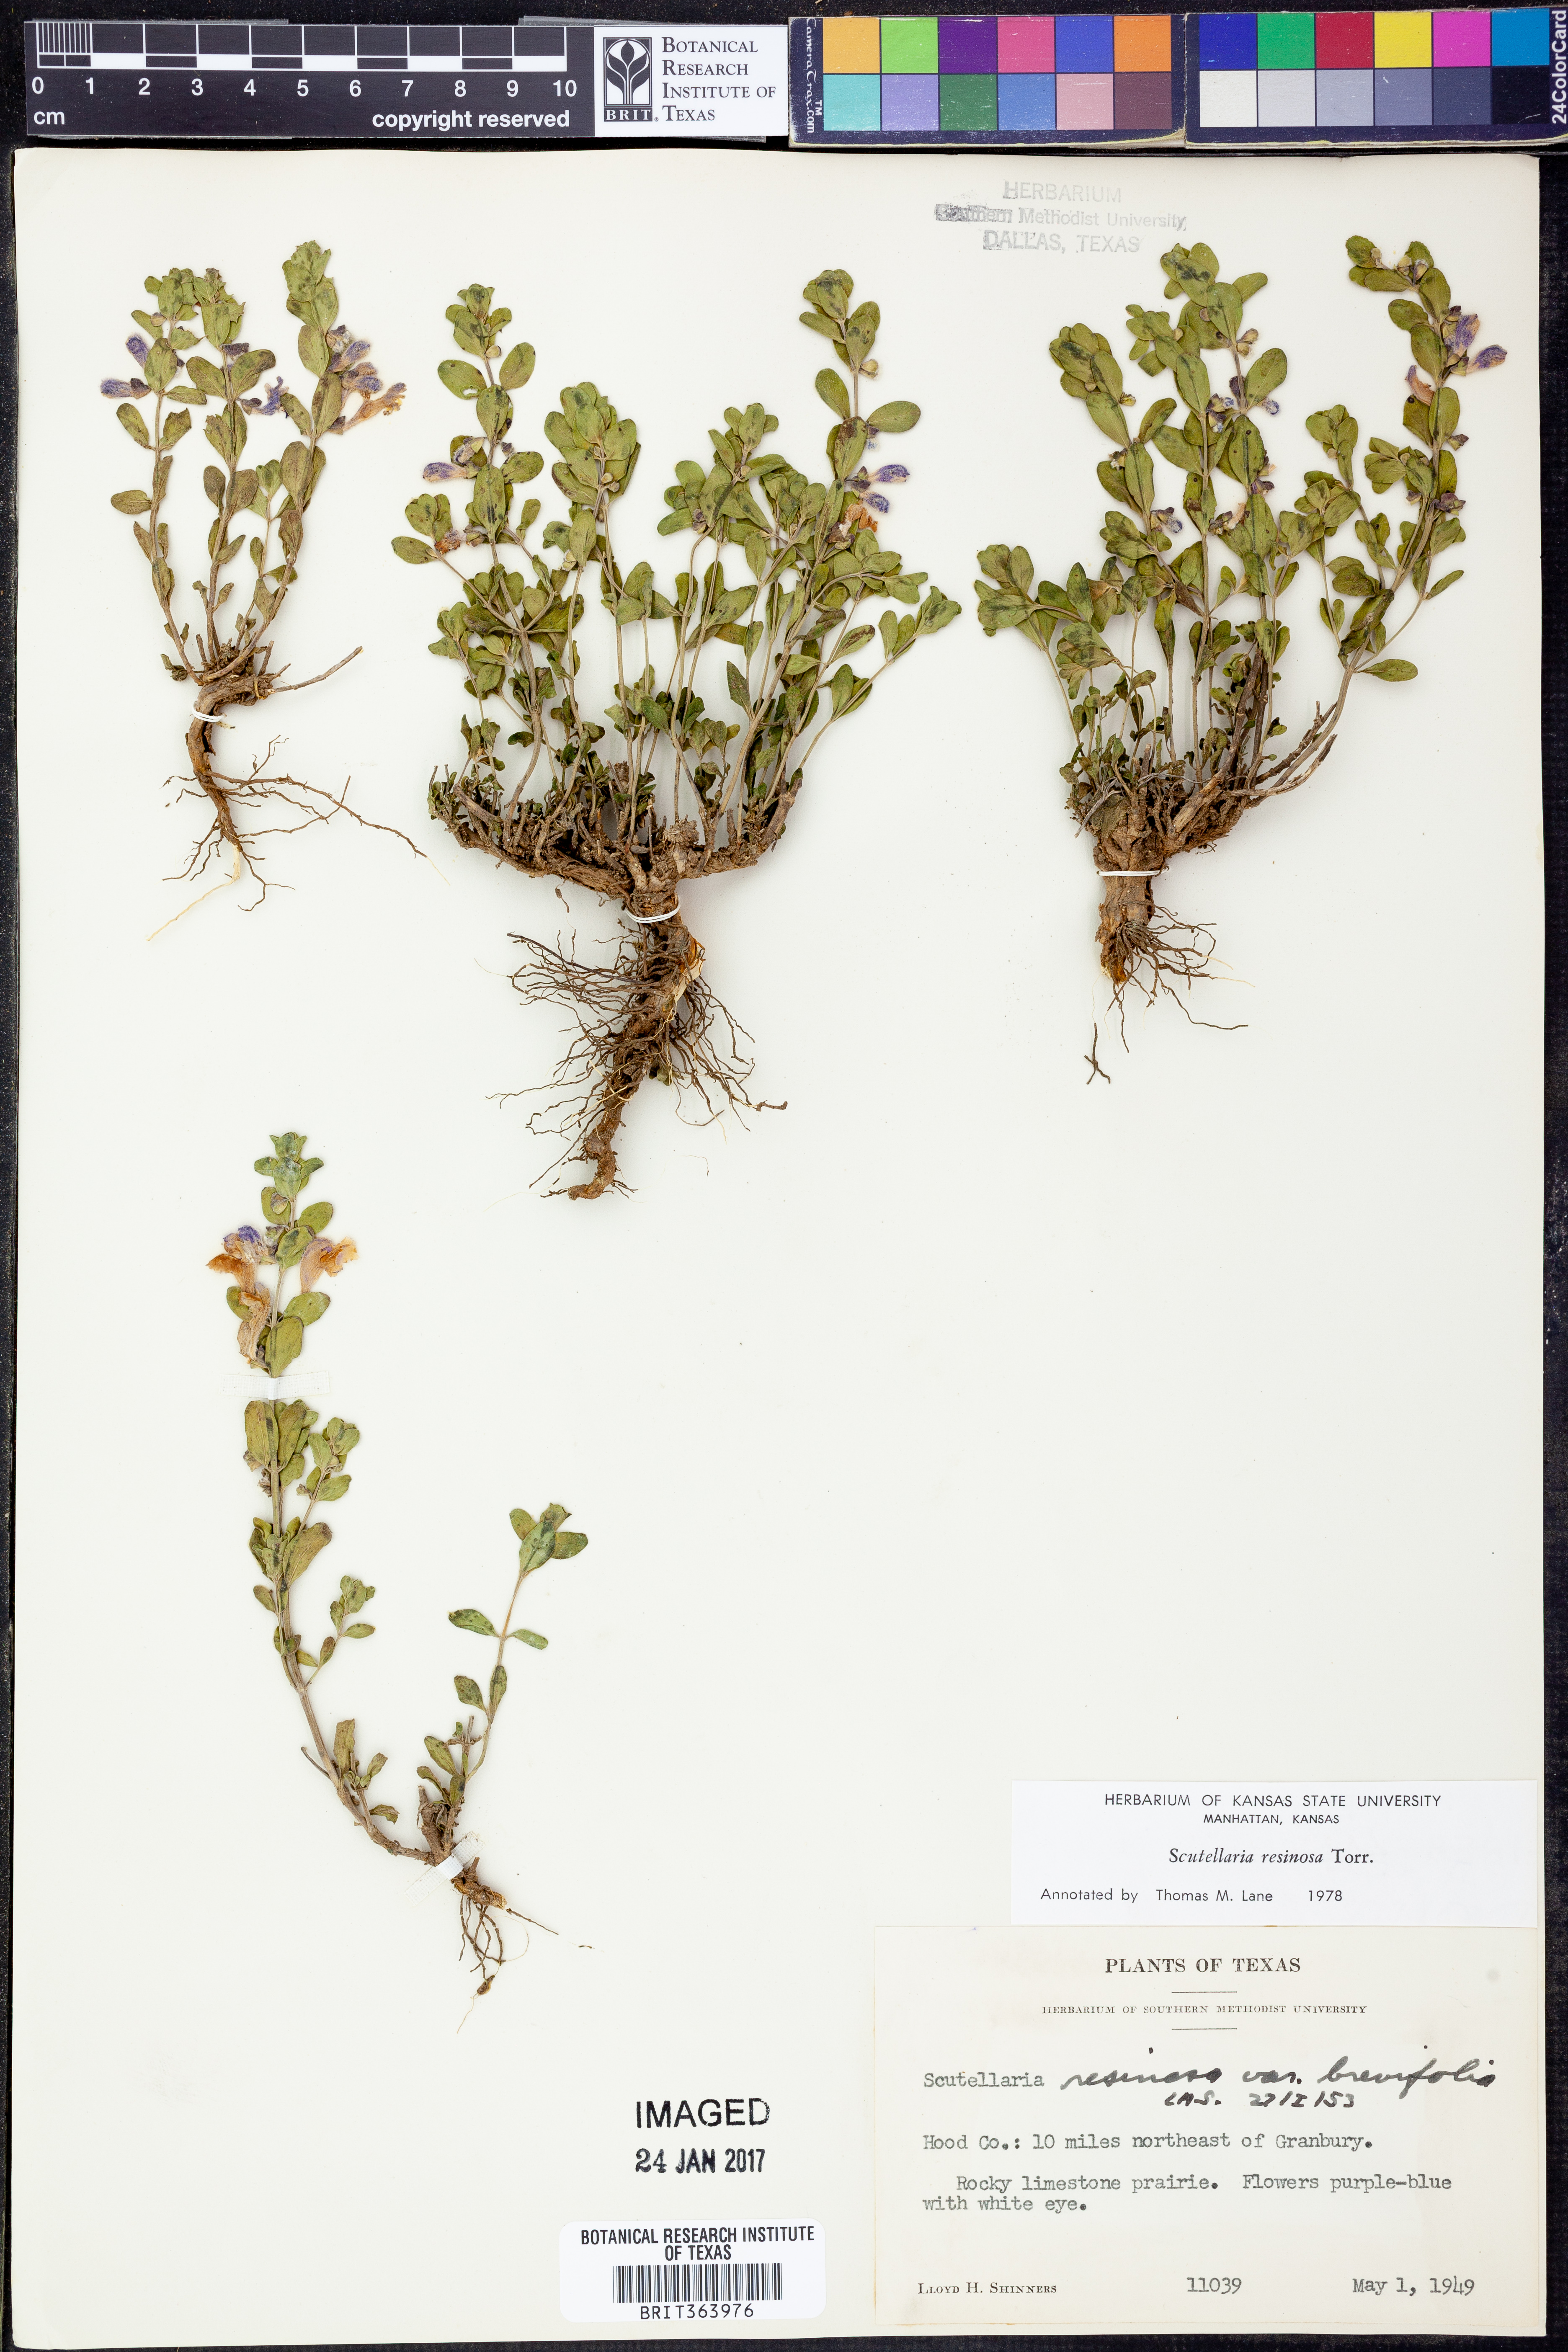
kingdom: Plantae
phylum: Tracheophyta
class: Magnoliopsida
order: Lamiales
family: Lamiaceae
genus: Scutellaria
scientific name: Scutellaria resinosa
